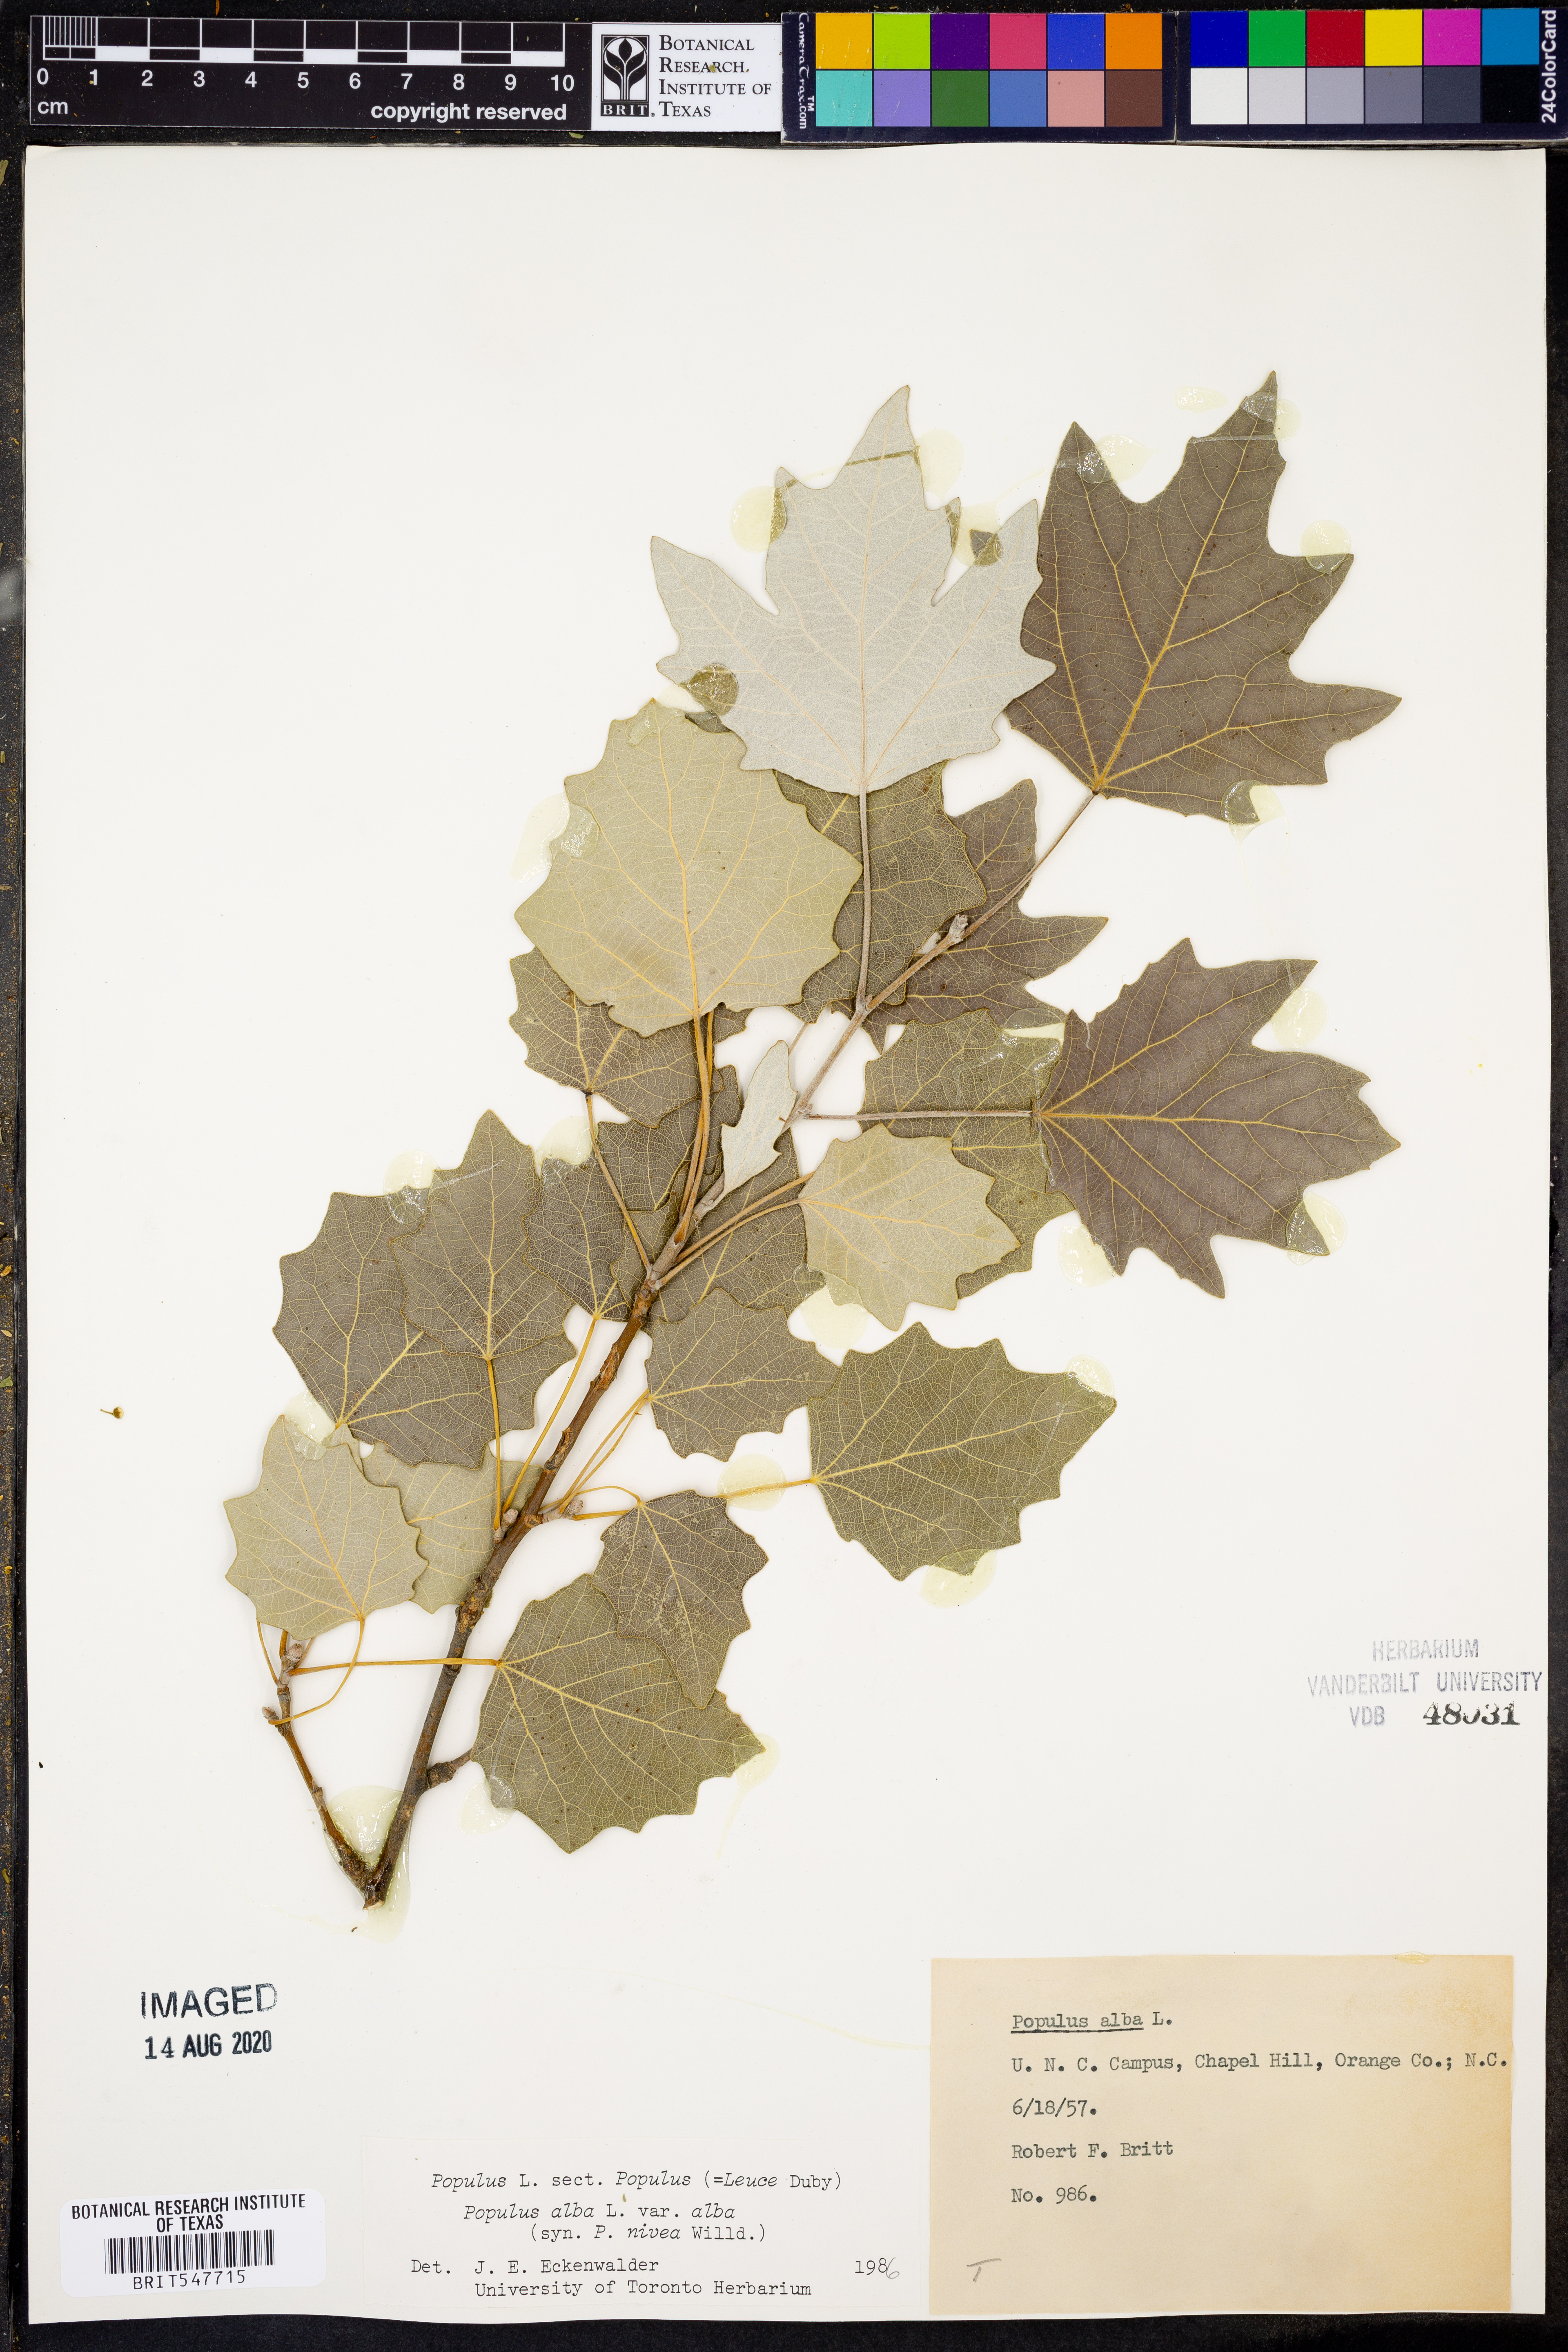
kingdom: Plantae
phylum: Tracheophyta
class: Magnoliopsida
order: Malpighiales
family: Salicaceae
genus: Populus
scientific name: Populus alba
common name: White poplar
